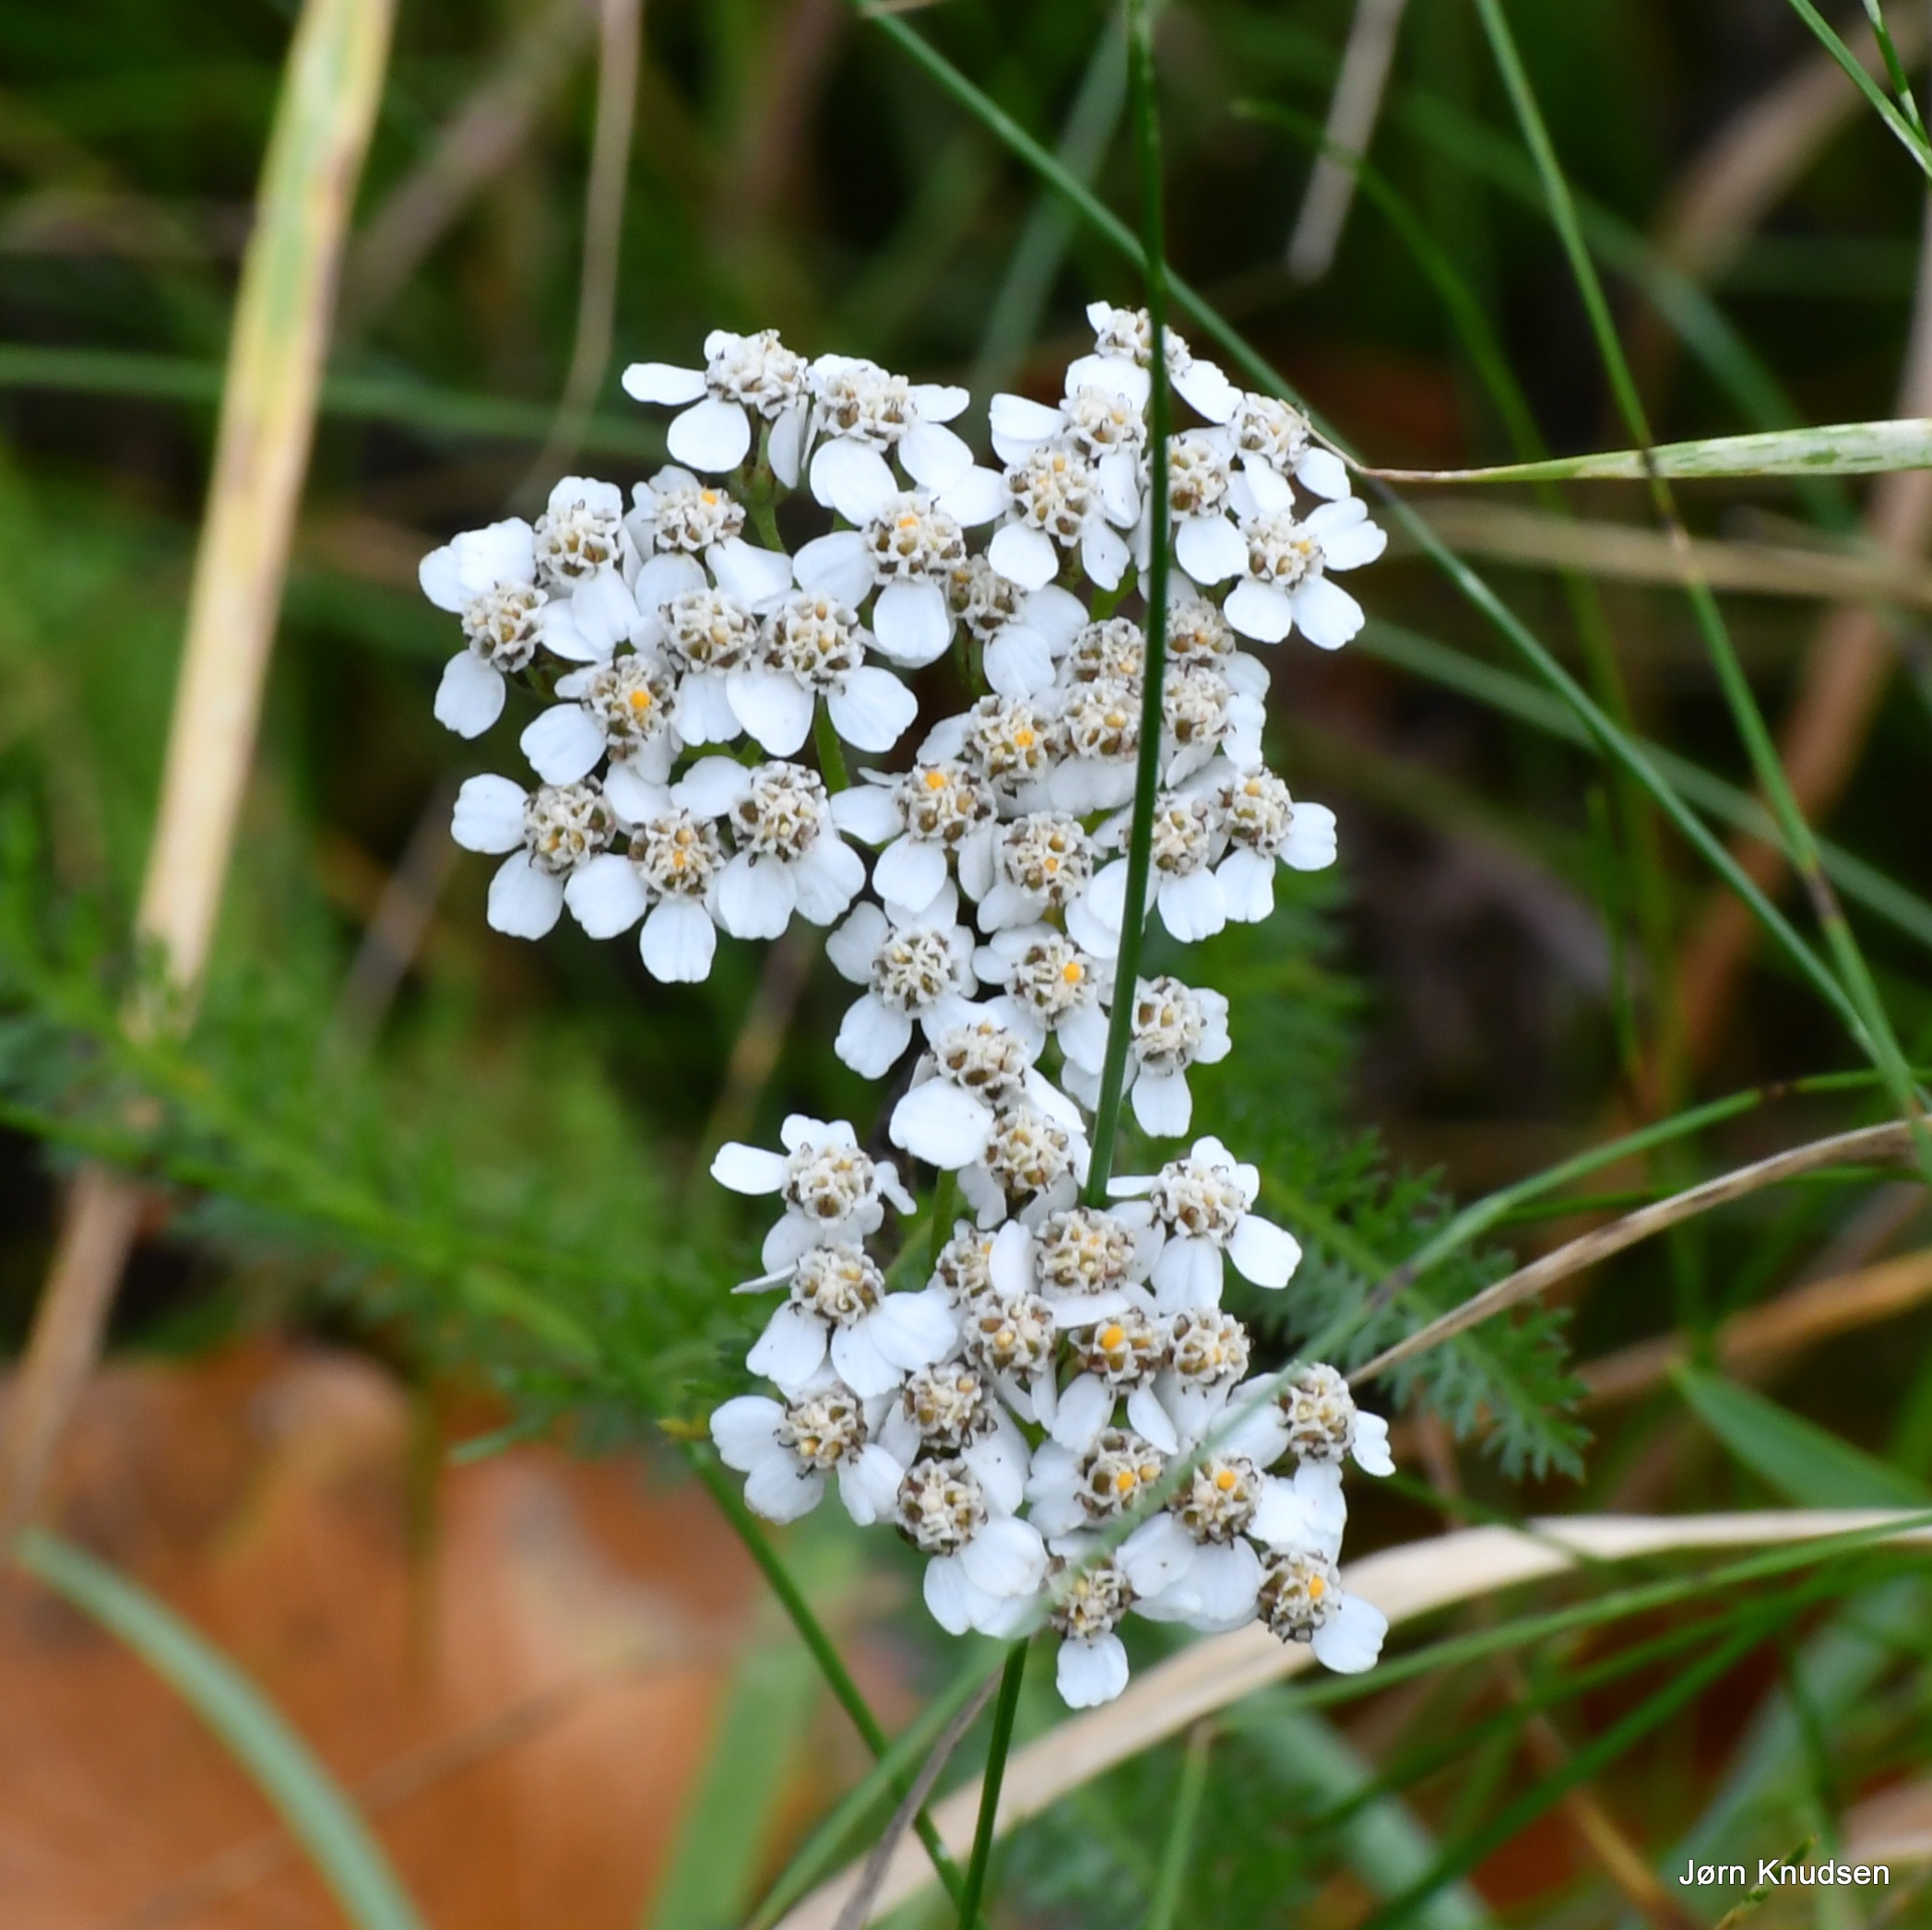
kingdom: Plantae
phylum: Tracheophyta
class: Magnoliopsida
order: Asterales
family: Asteraceae
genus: Achillea
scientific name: Achillea millefolium
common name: Almindelig røllike
